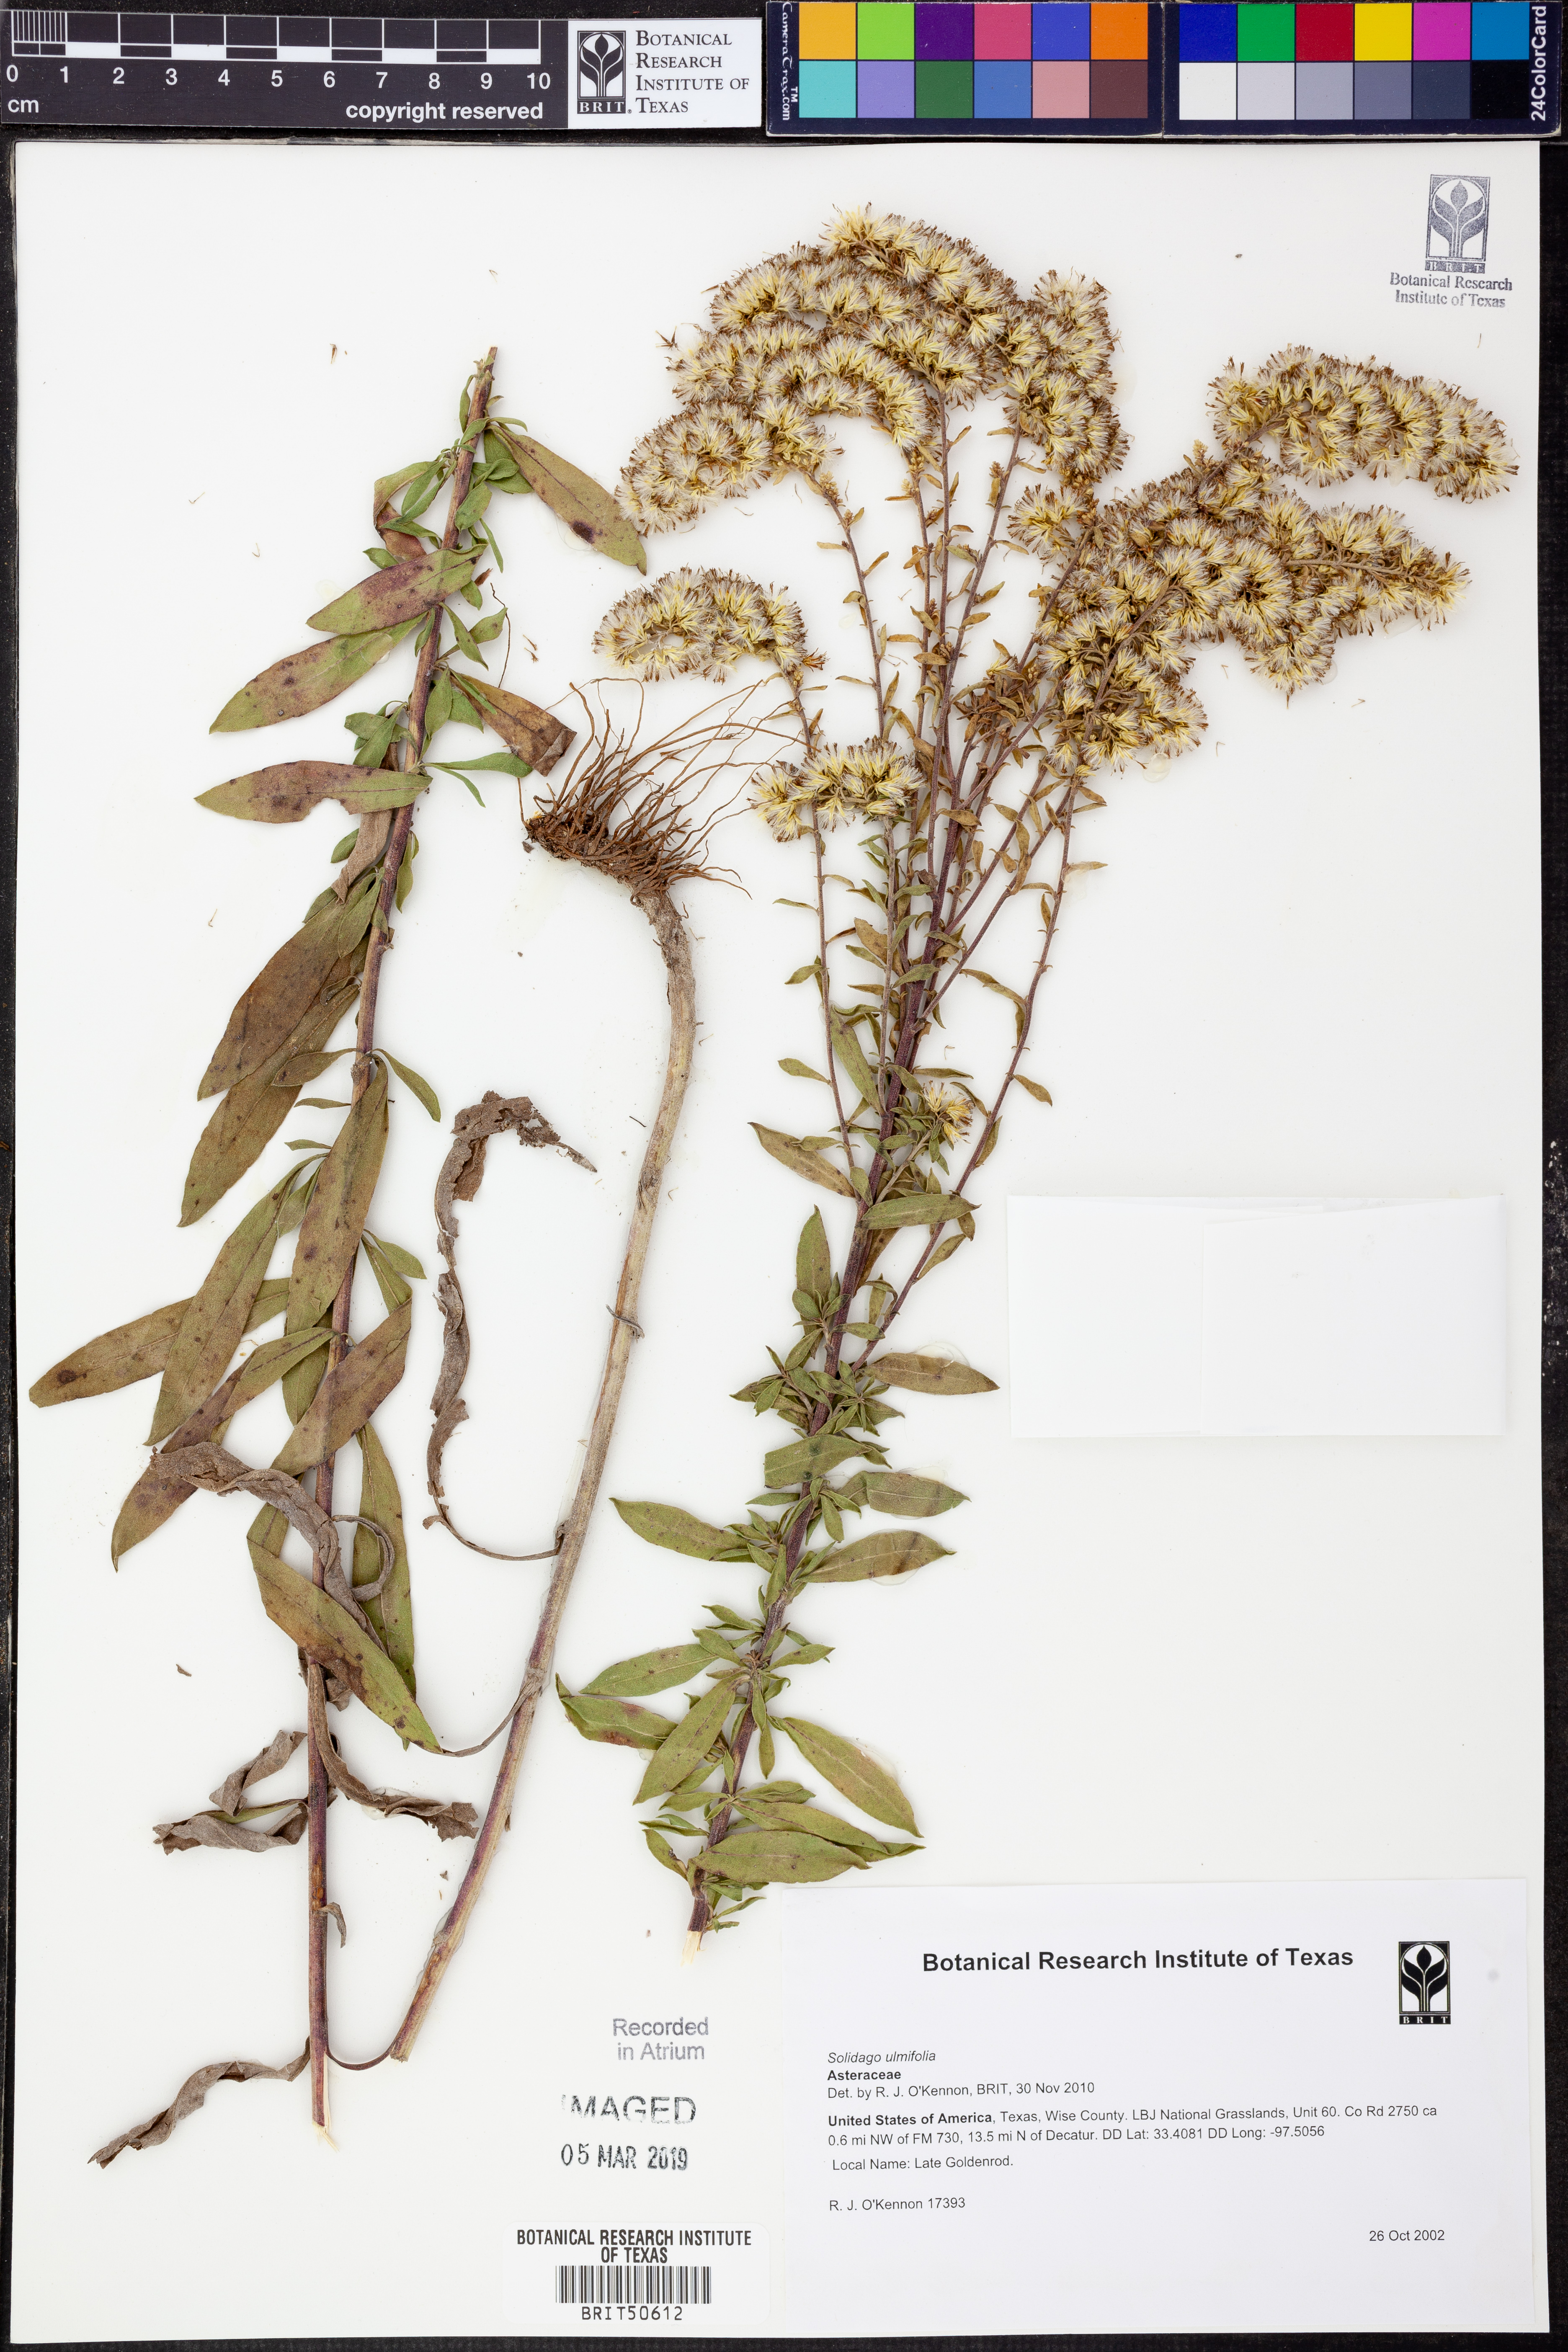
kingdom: Plantae
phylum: Tracheophyta
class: Magnoliopsida
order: Asterales
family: Asteraceae
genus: Solidago
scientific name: Solidago ulmifolia
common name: Elm-leaf goldenrod
